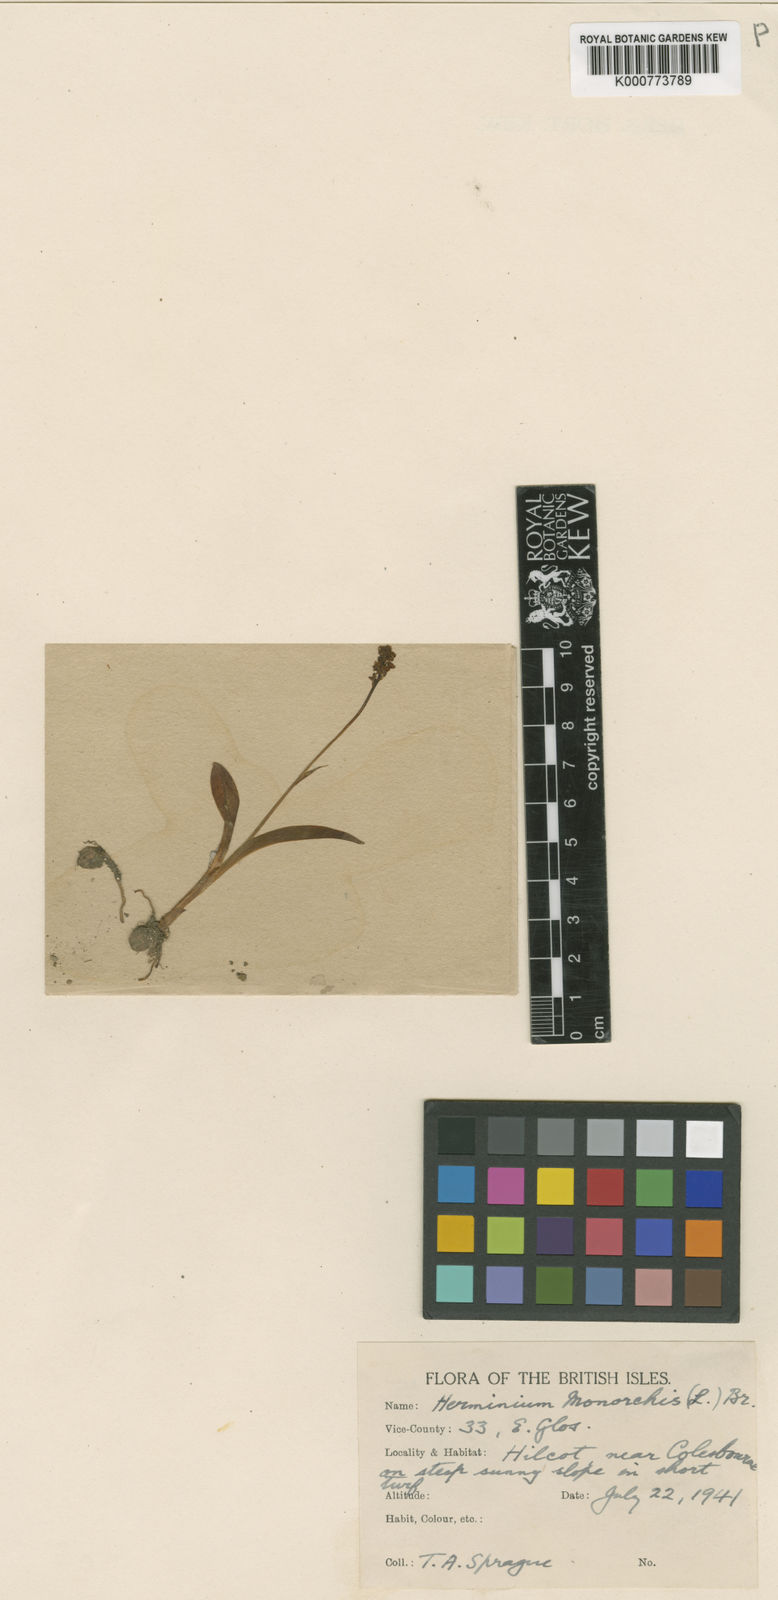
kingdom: Plantae
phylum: Tracheophyta
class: Liliopsida
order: Asparagales
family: Orchidaceae
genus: Herminium
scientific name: Herminium monorchis
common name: Musk orchid
